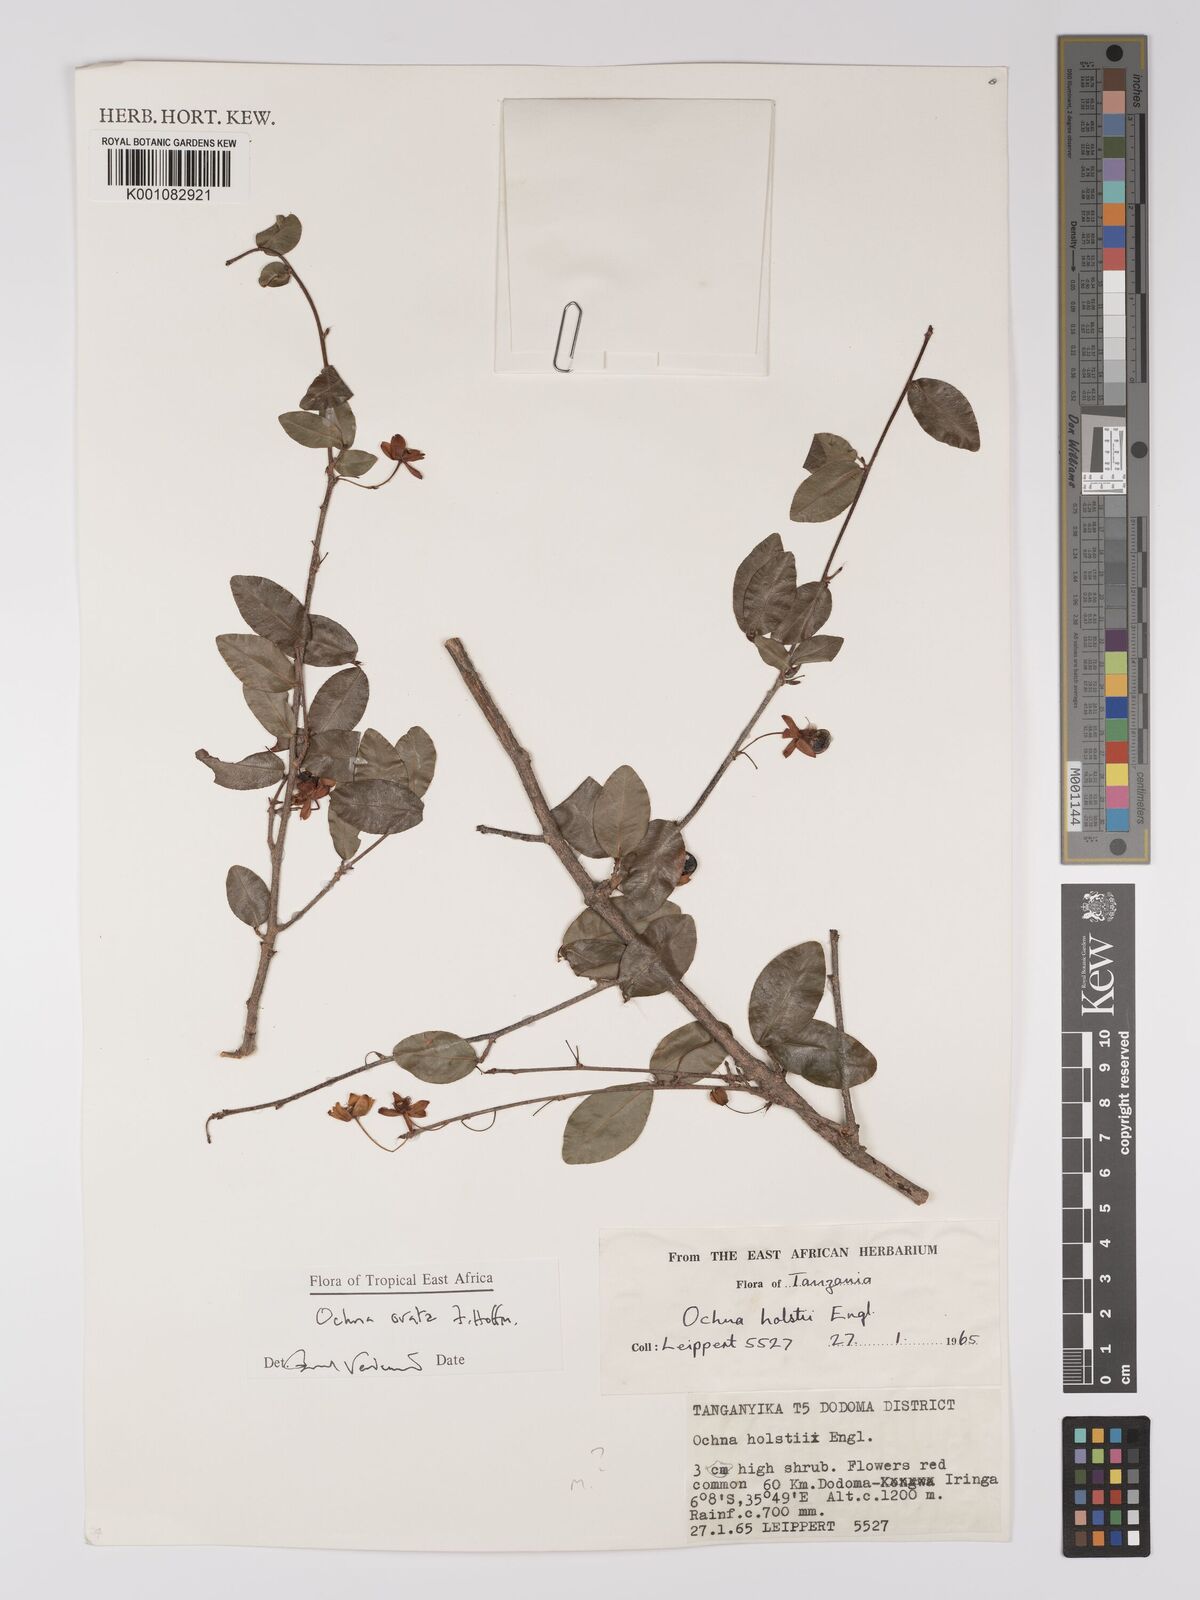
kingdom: Plantae
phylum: Tracheophyta
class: Magnoliopsida
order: Malpighiales
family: Ochnaceae
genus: Ochna
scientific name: Ochna ovata
